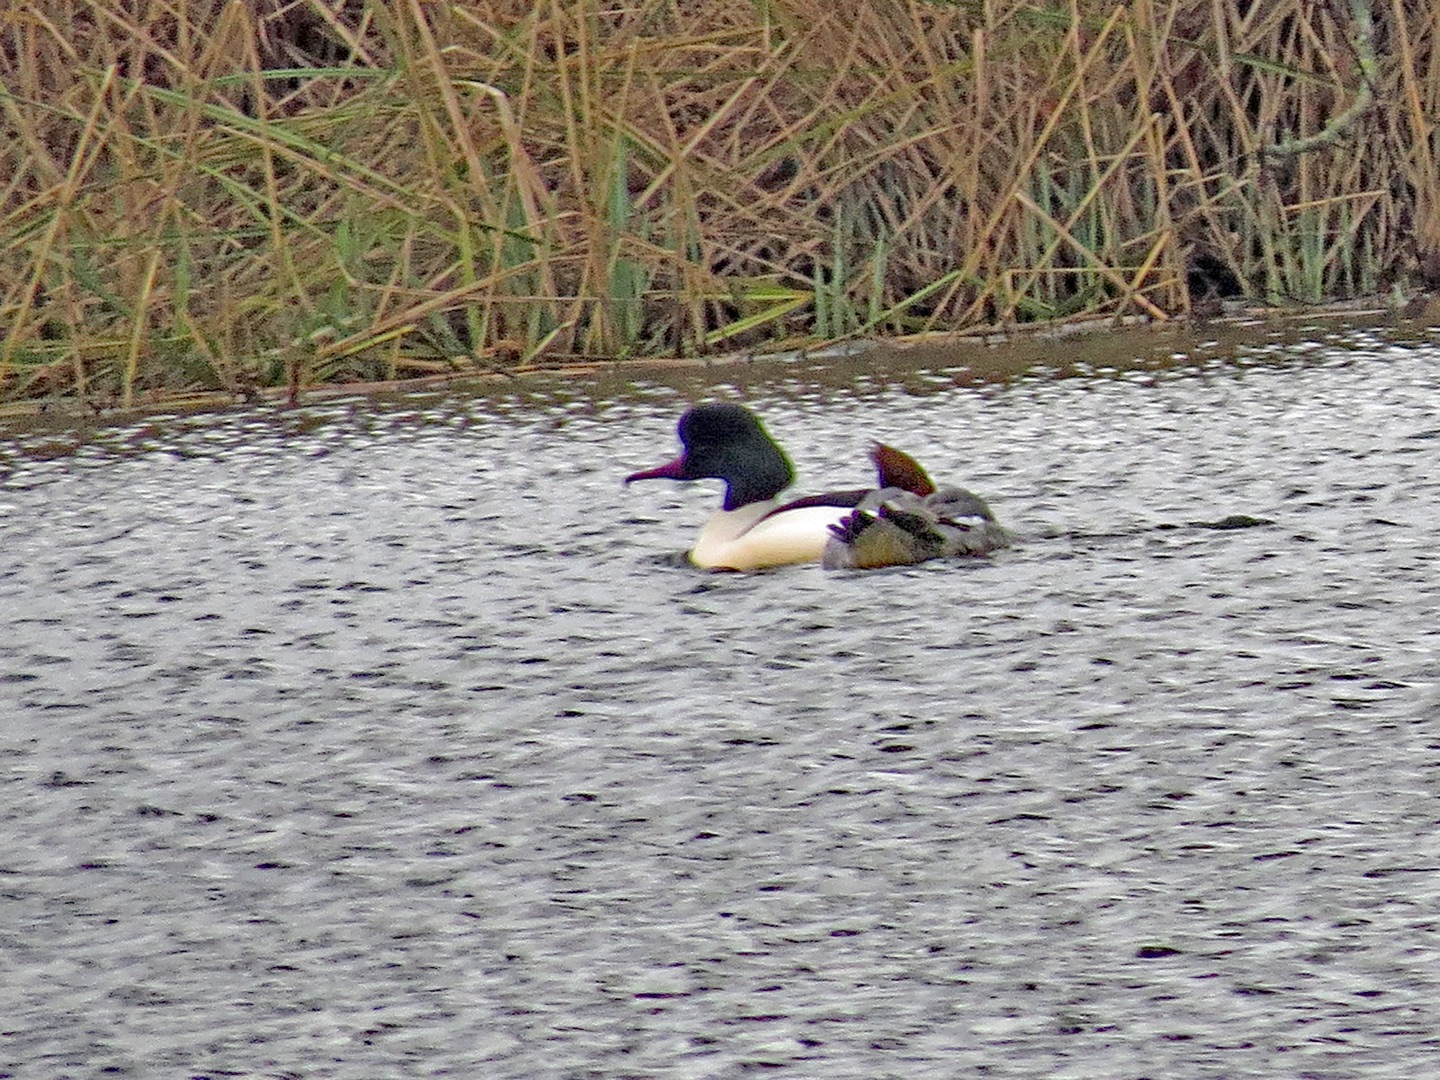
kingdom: Animalia
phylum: Chordata
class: Aves
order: Anseriformes
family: Anatidae
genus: Mergus
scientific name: Mergus merganser
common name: Stor skallesluger
